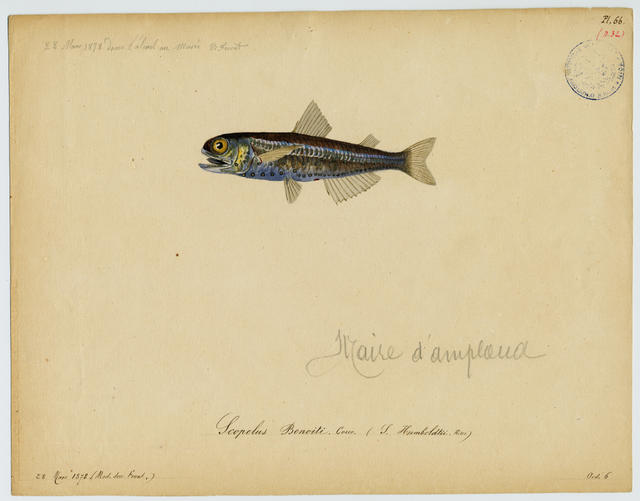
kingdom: Animalia
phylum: Chordata
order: Myctophiformes
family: Myctophidae
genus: Hygophum
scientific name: Hygophum benoiti
